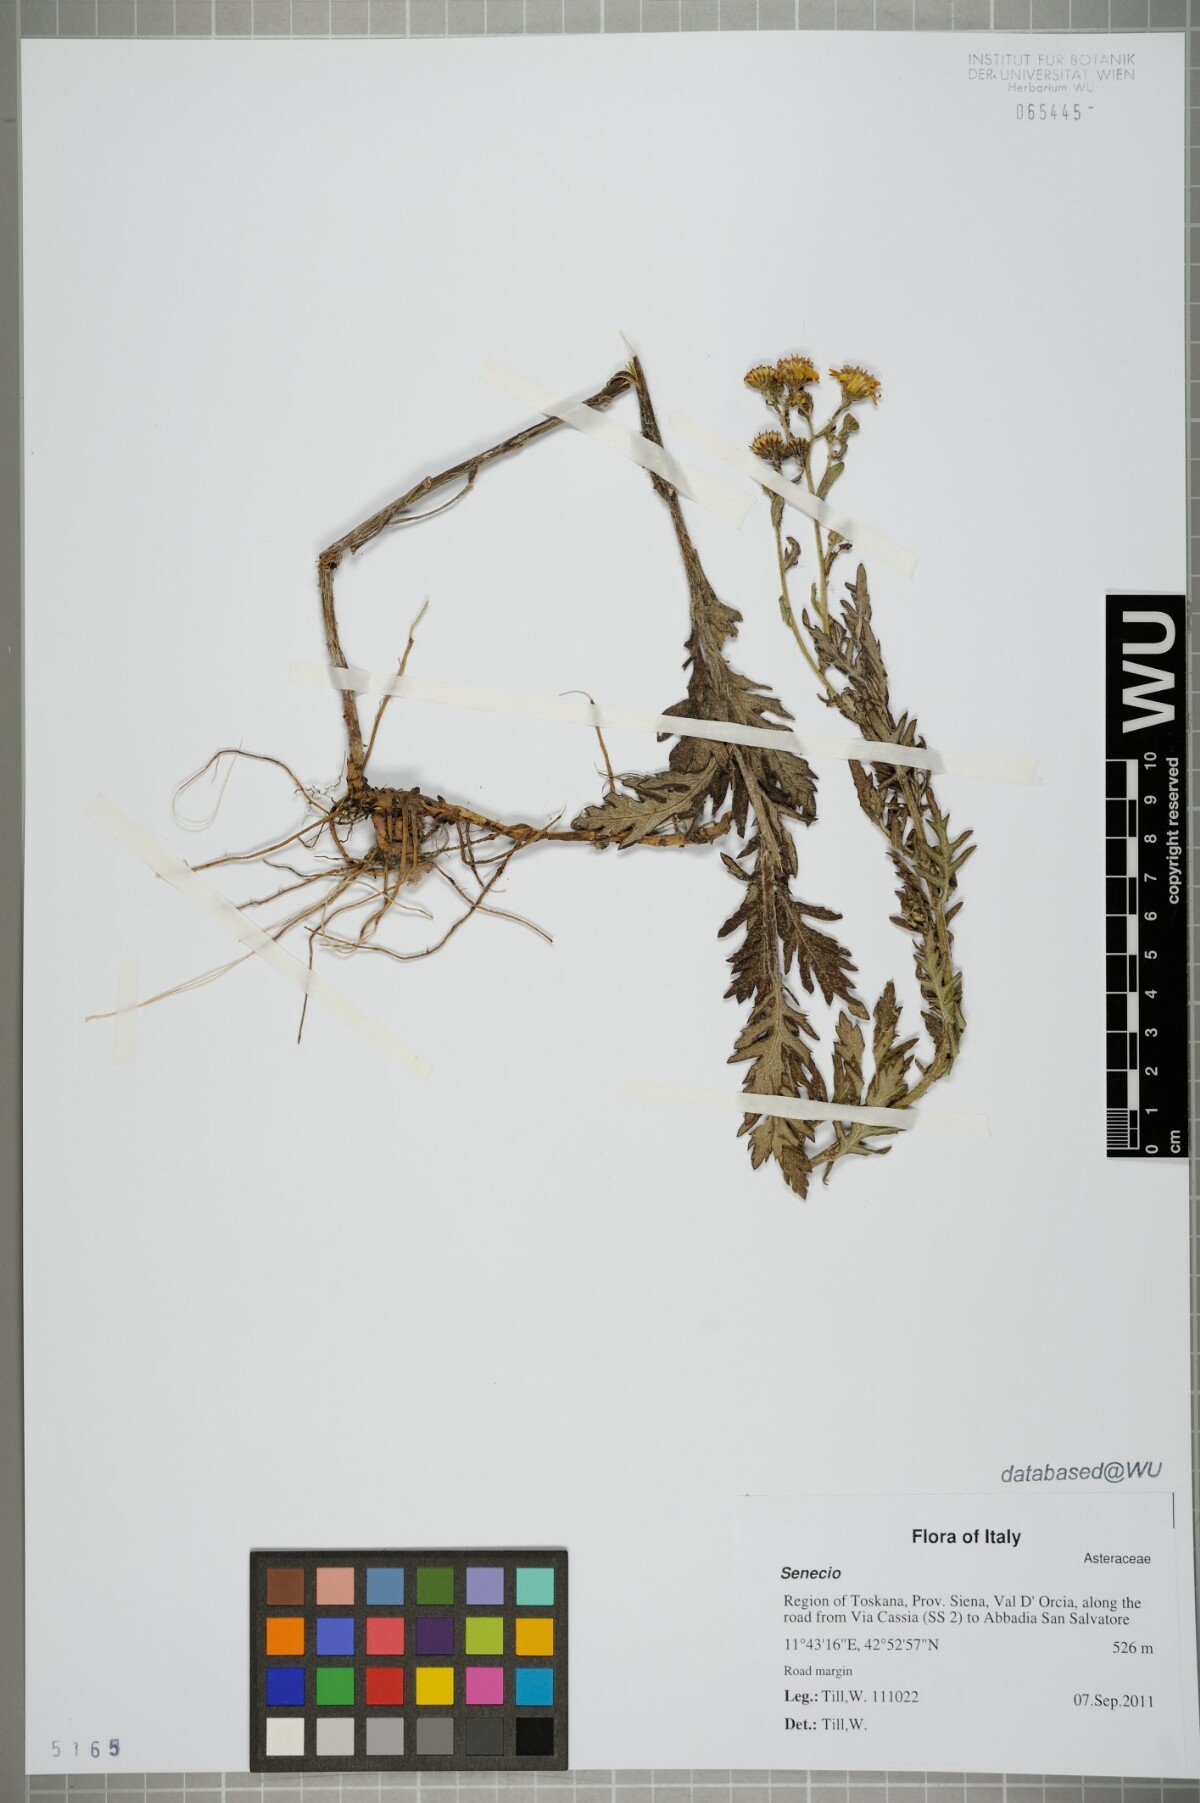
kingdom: Plantae
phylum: Tracheophyta
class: Magnoliopsida
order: Asterales
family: Asteraceae
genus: Senecio
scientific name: Senecio
